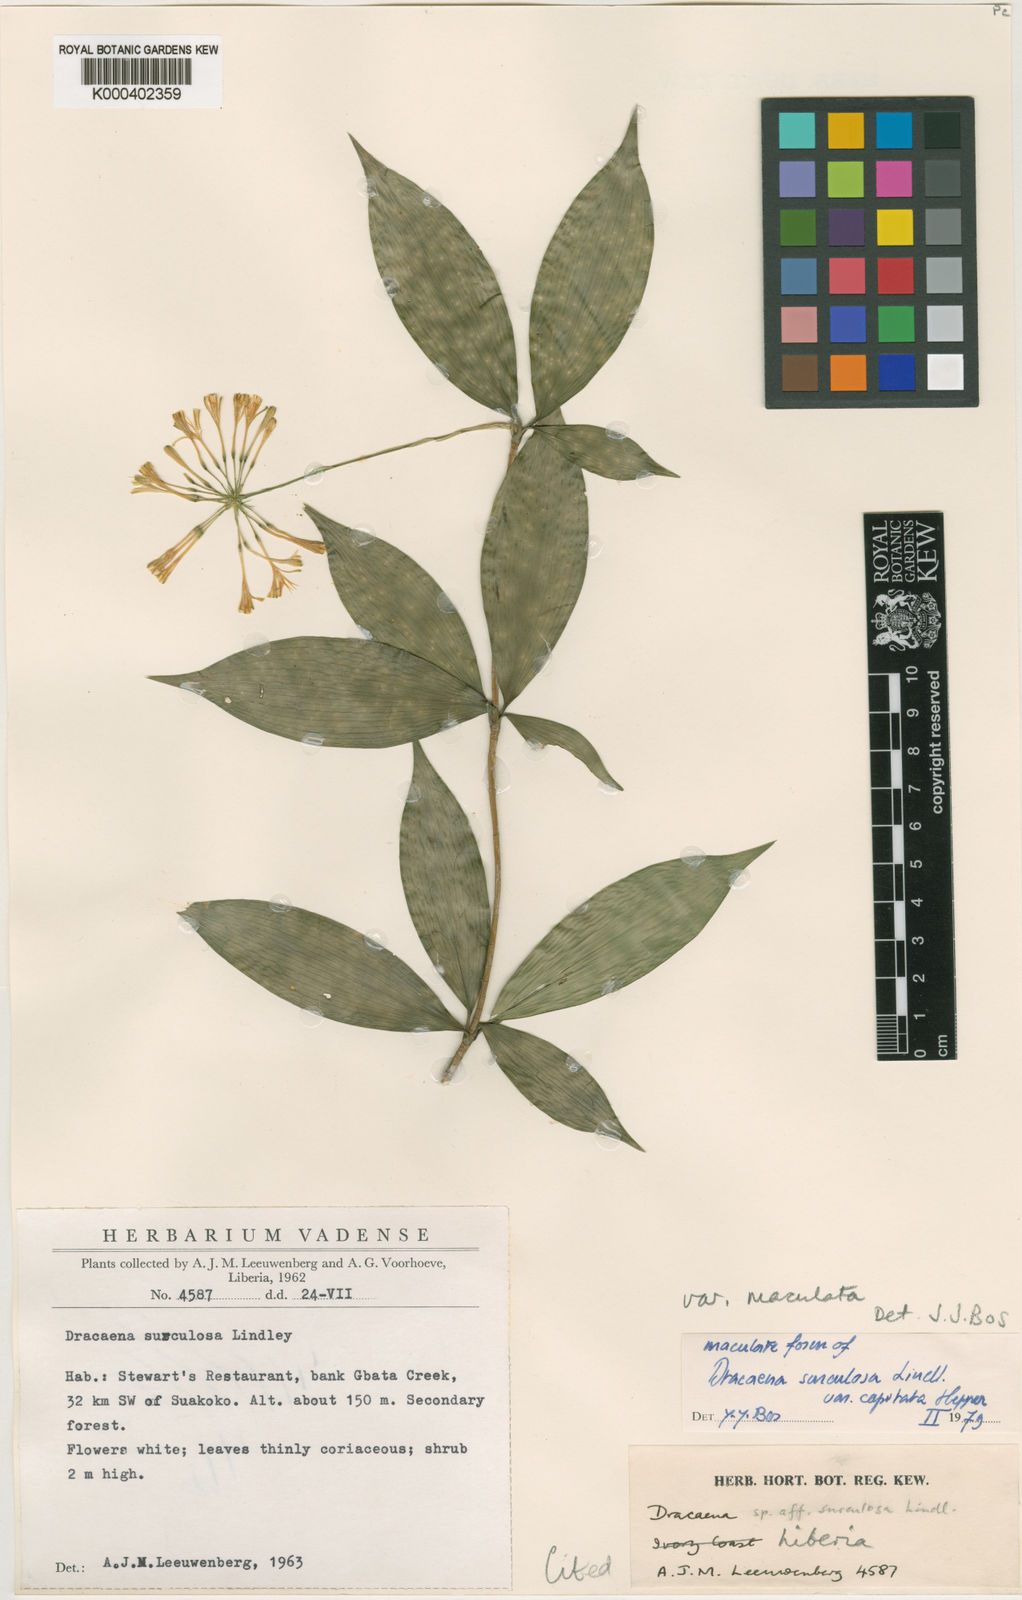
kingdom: Plantae
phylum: Tracheophyta
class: Liliopsida
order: Asparagales
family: Asparagaceae
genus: Dracaena
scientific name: Dracaena surculosa
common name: Spotted dracaena
